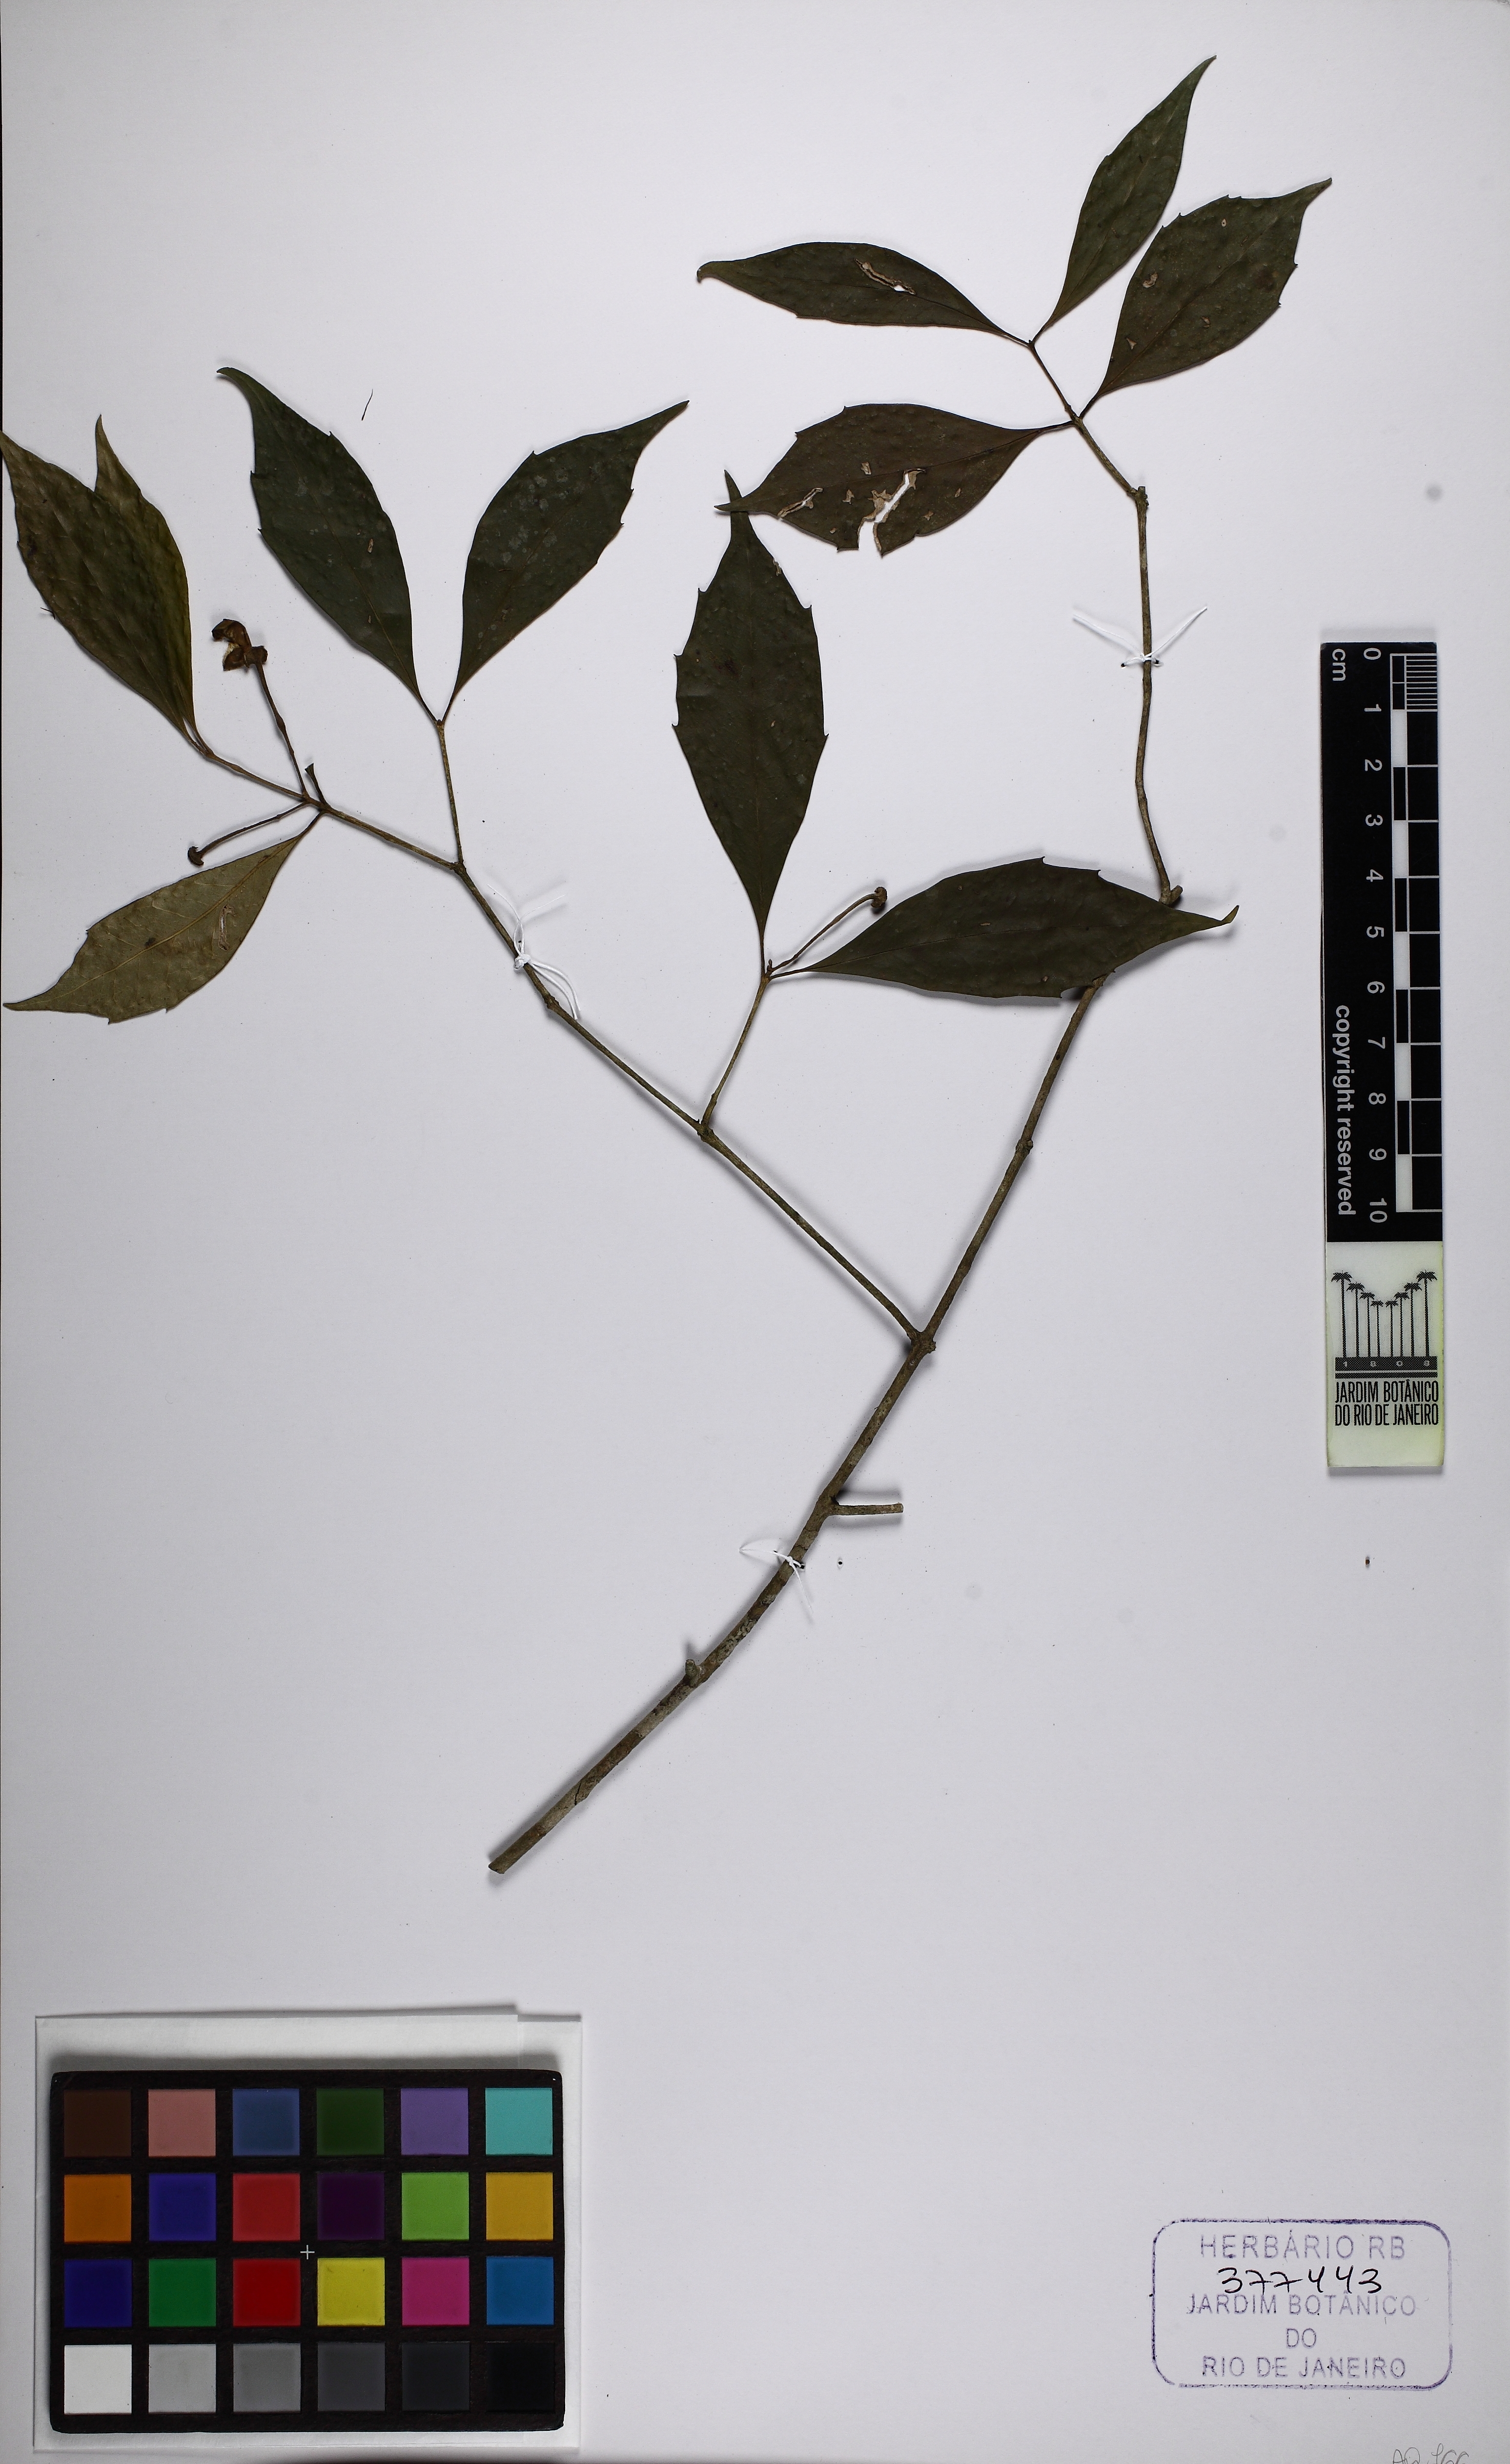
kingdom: Plantae
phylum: Tracheophyta
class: Magnoliopsida
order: Laurales
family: Monimiaceae
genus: Mollinedia
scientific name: Mollinedia clavigera
